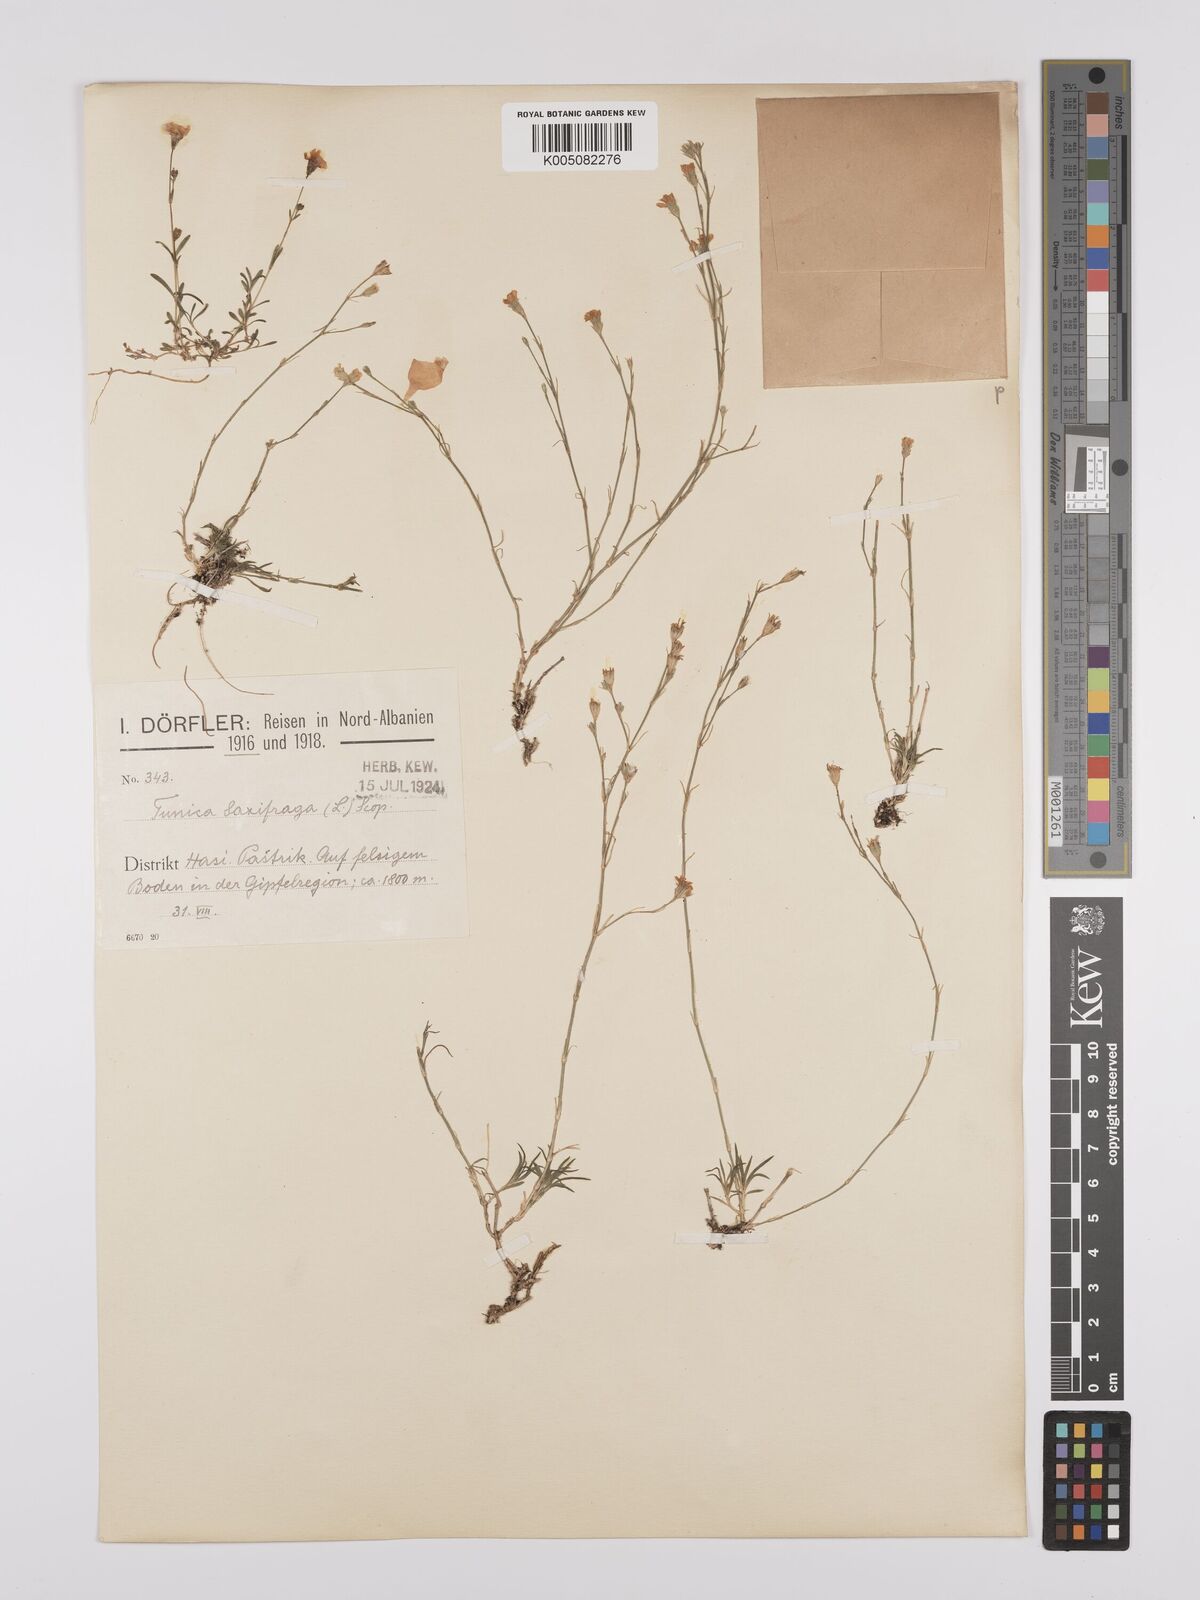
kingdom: Plantae
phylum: Tracheophyta
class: Magnoliopsida
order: Caryophyllales
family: Caryophyllaceae
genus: Petrorhagia
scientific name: Petrorhagia saxifraga
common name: Tunicflower
